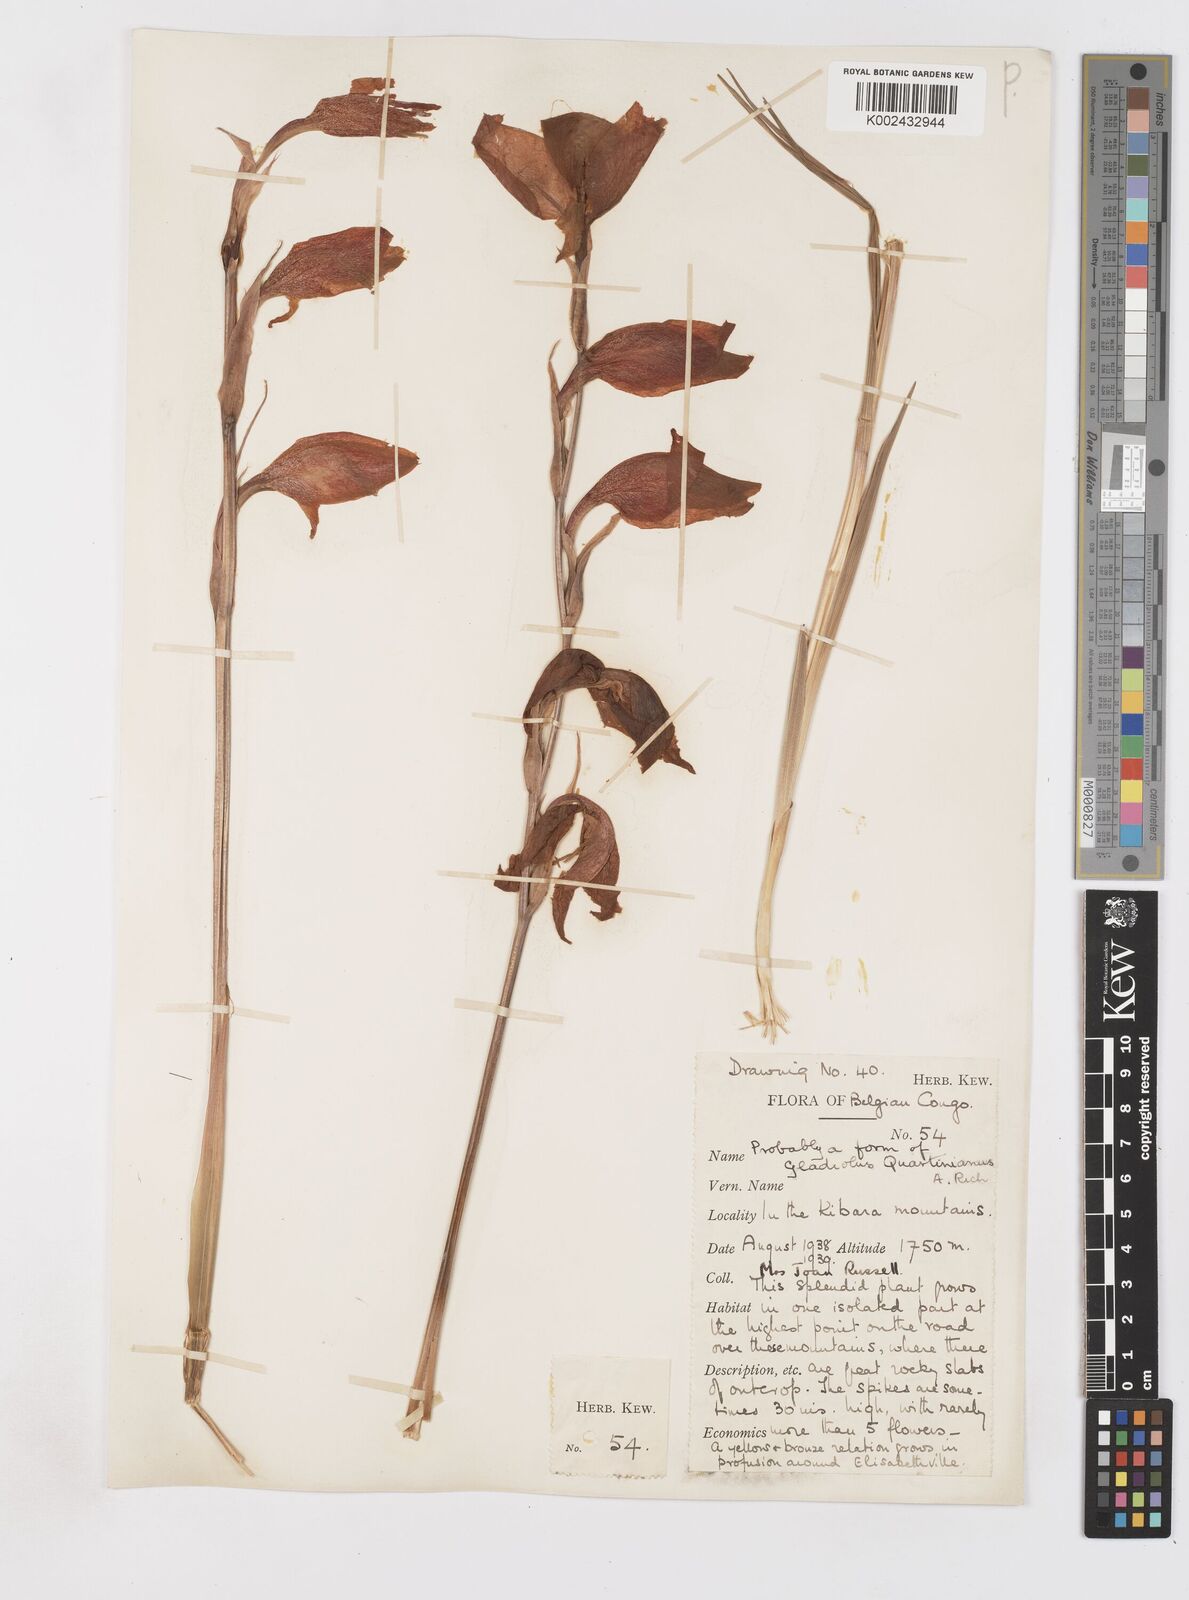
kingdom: Plantae
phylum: Tracheophyta
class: Liliopsida
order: Asparagales
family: Iridaceae
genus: Gladiolus
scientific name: Gladiolus dalenii
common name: Cornflag
